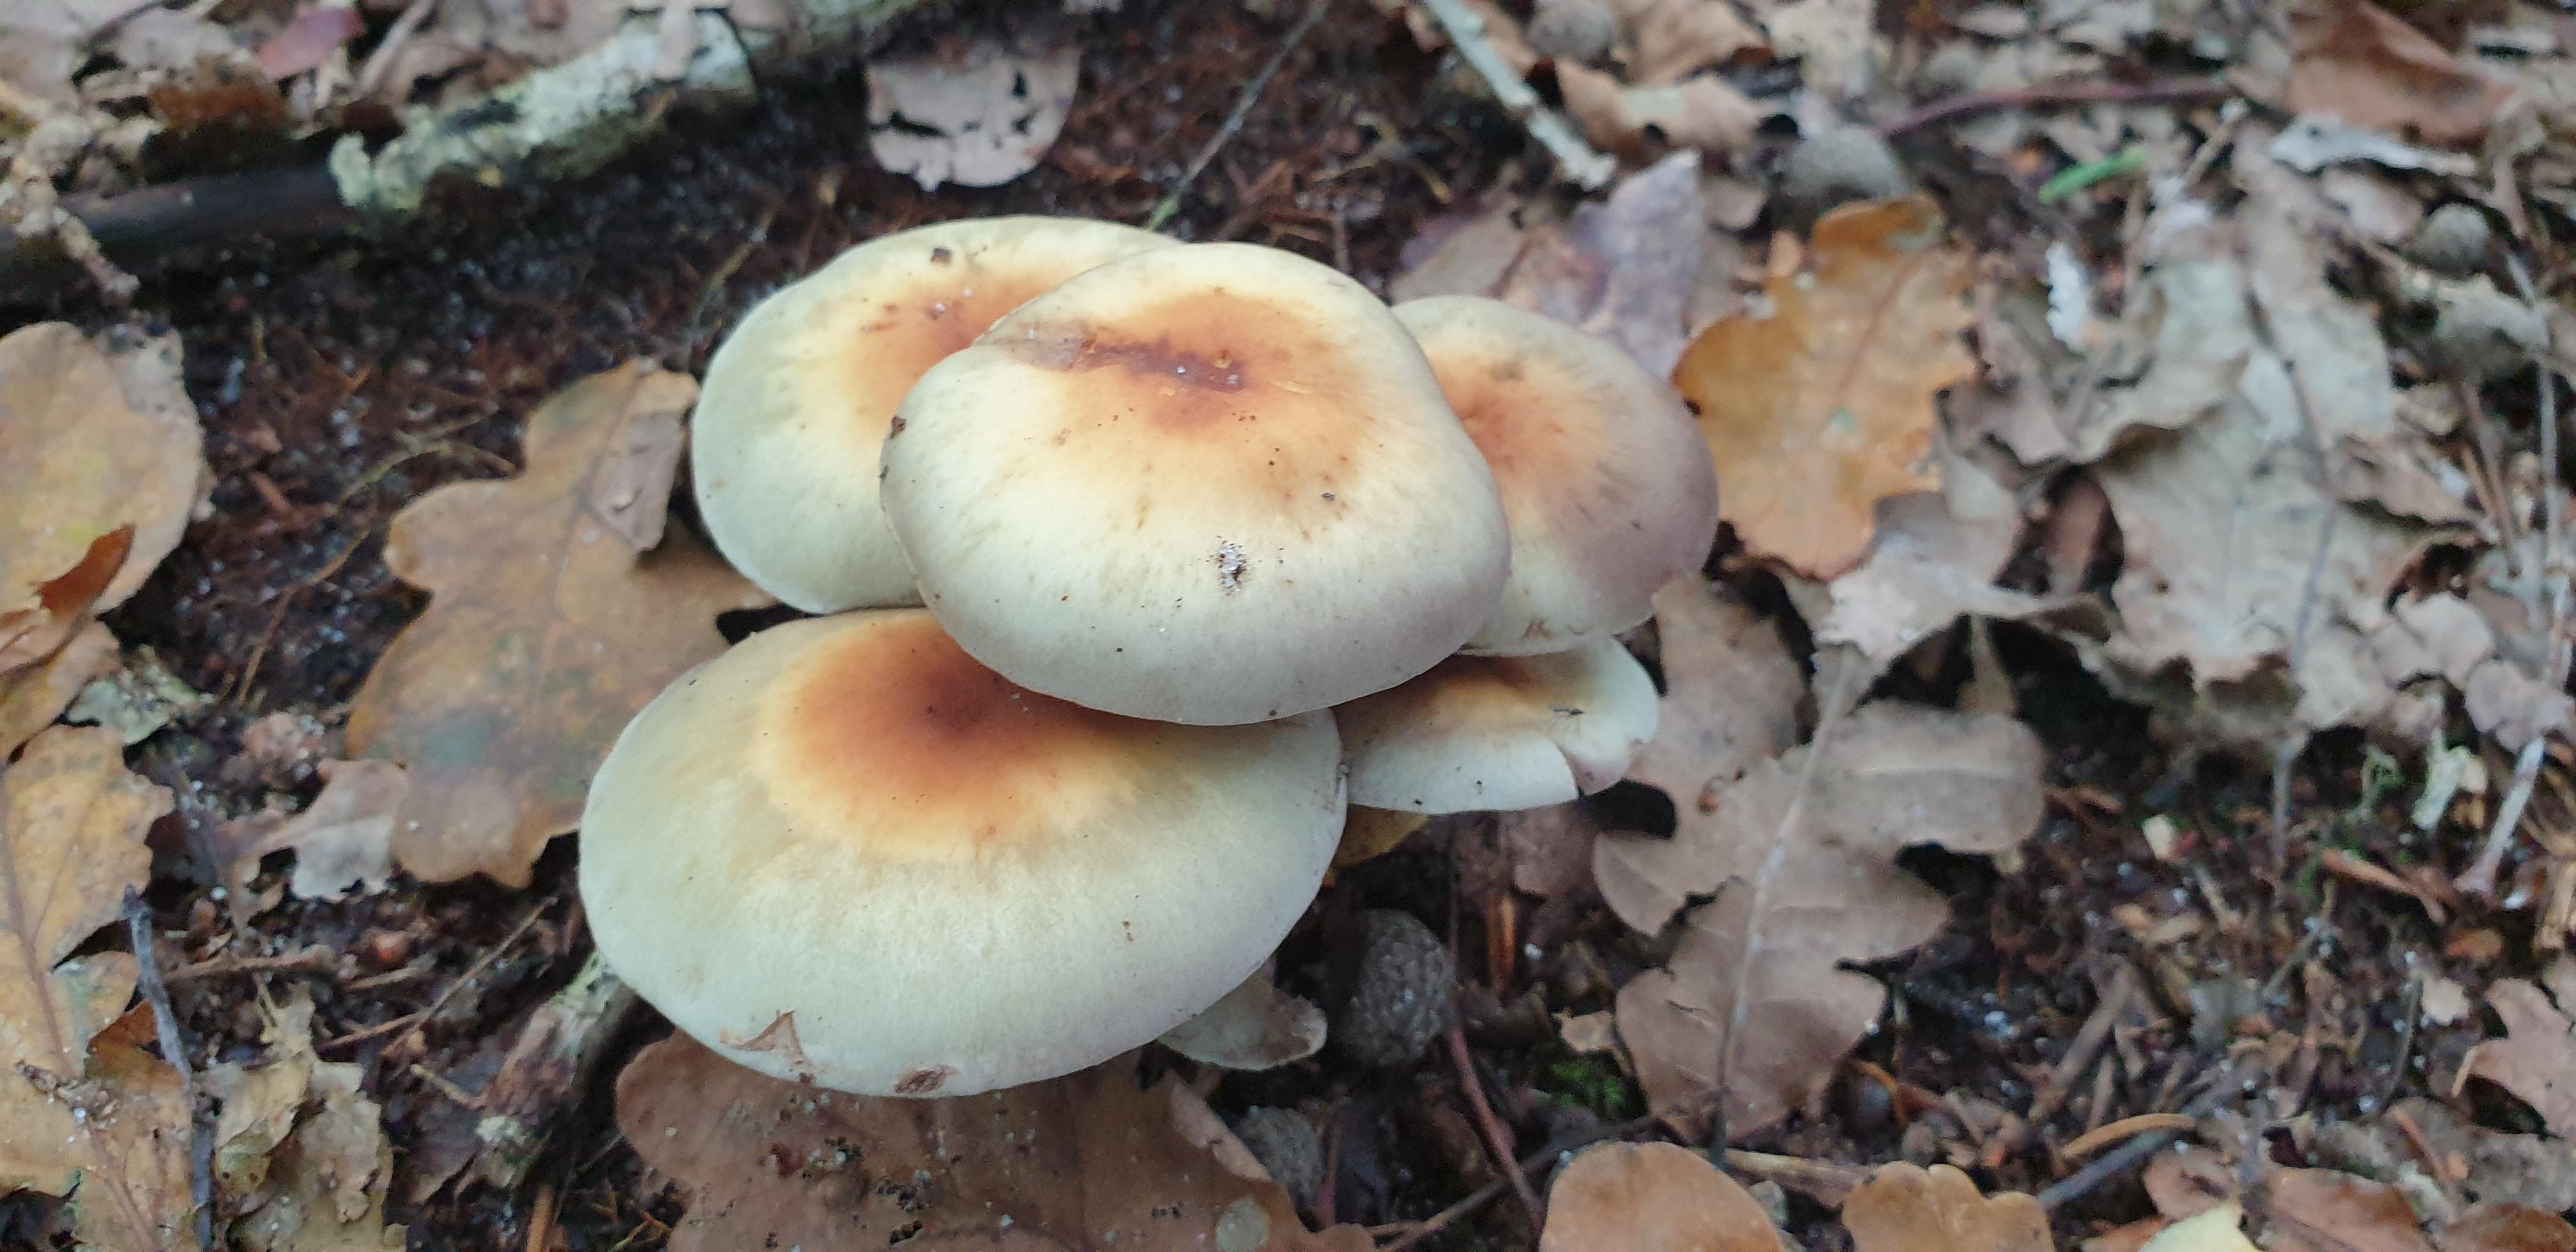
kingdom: Fungi
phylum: Basidiomycota
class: Agaricomycetes
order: Agaricales
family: Strophariaceae
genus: Hypholoma
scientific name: Hypholoma fasciculare
